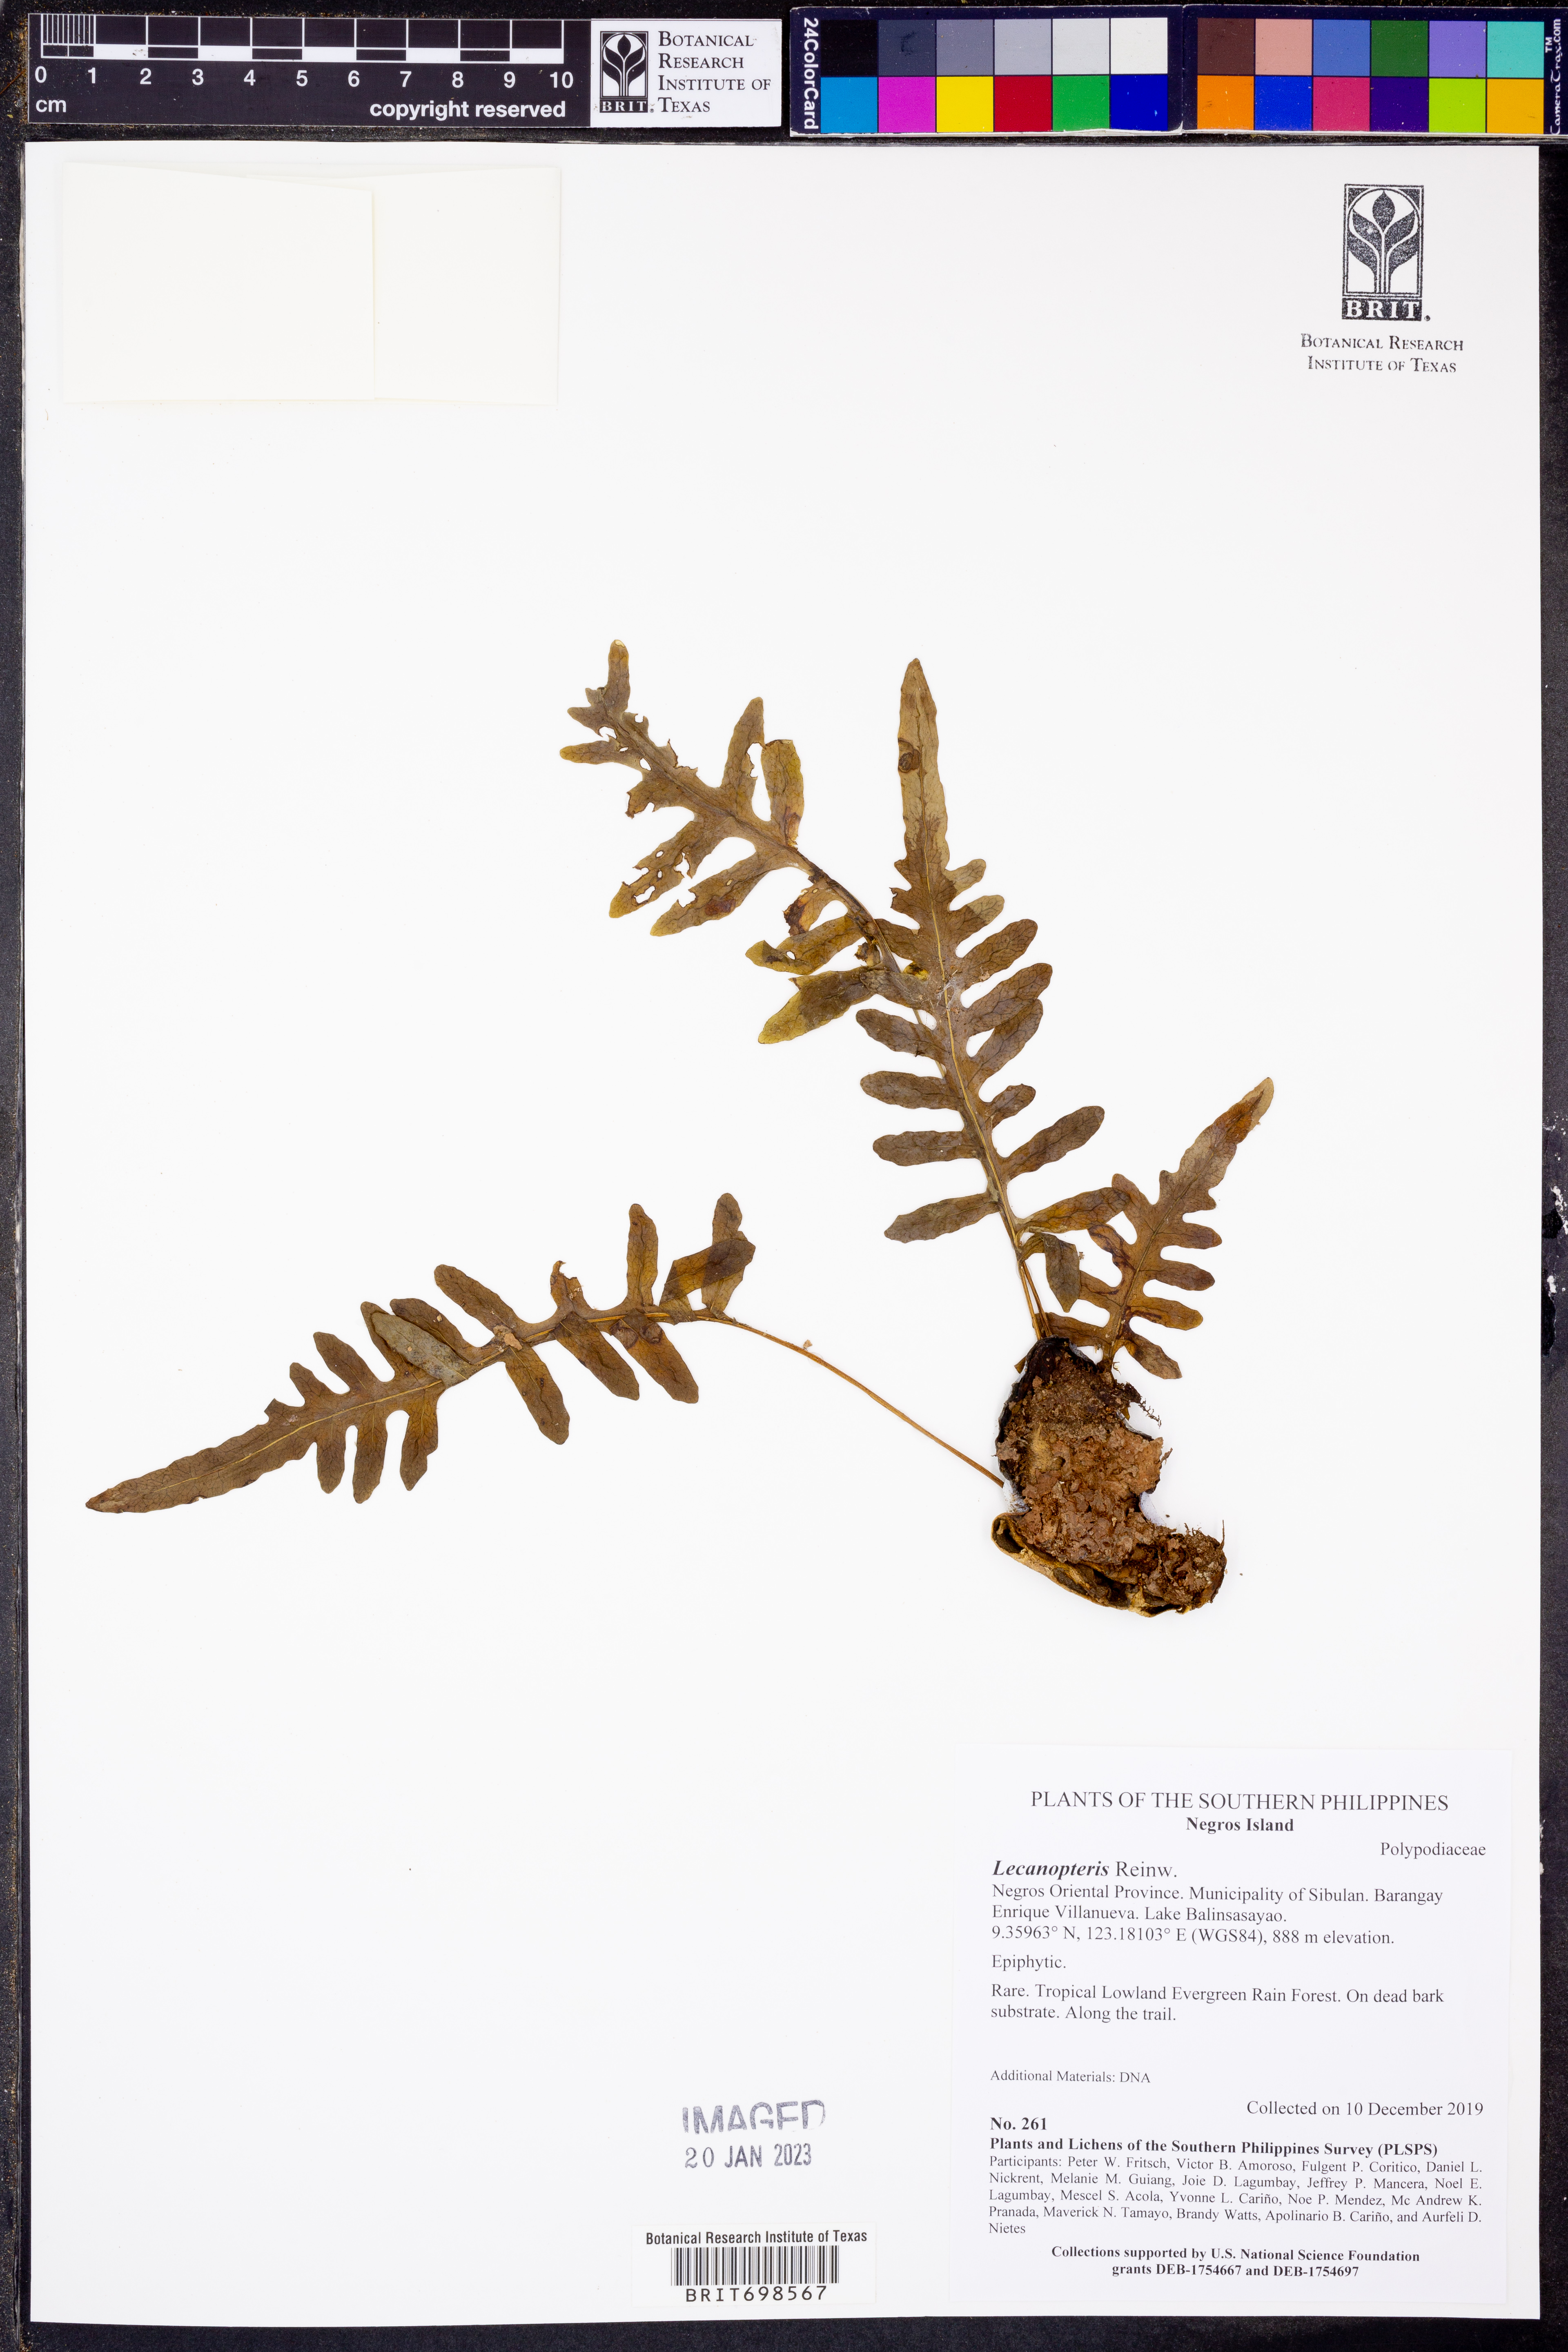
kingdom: Plantae
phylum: Tracheophyta
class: Polypodiopsida
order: Polypodiales
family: Polypodiaceae
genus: Lecanopteris
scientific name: Lecanopteris
